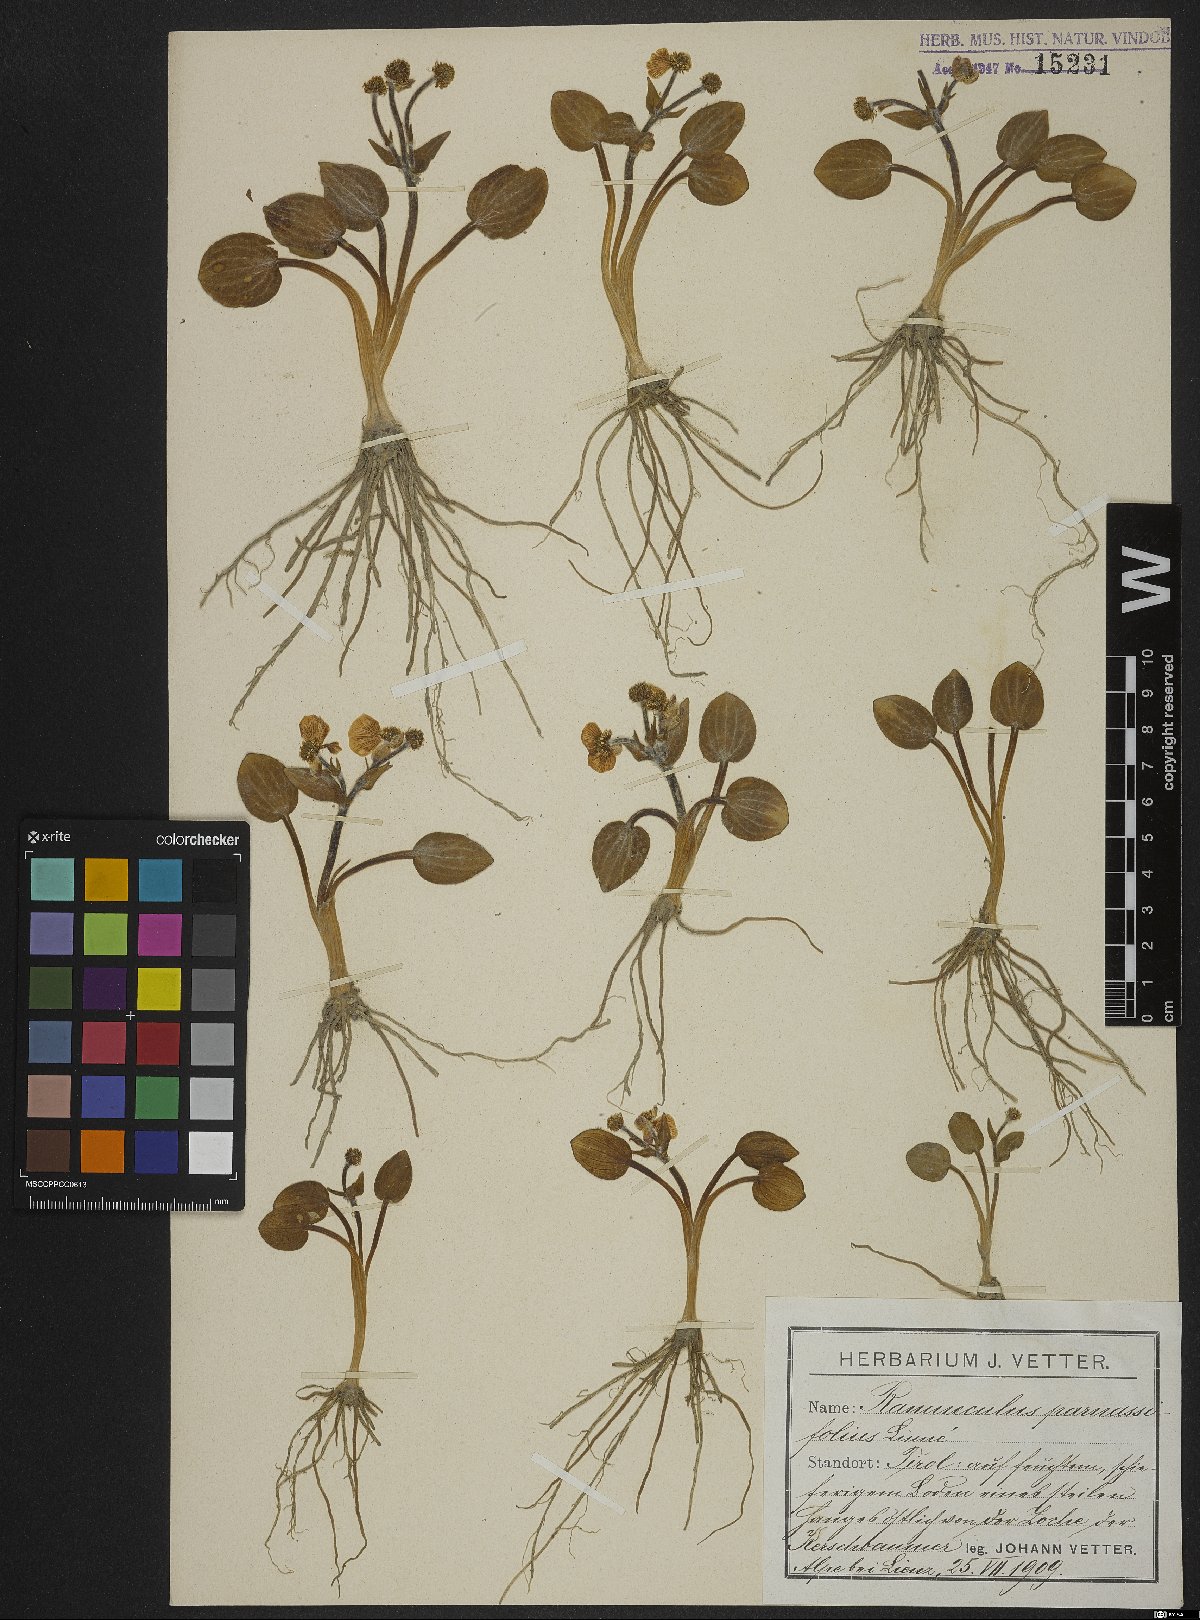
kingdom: Plantae
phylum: Tracheophyta
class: Magnoliopsida
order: Ranunculales
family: Ranunculaceae
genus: Ranunculus
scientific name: Ranunculus parnassiifolius
